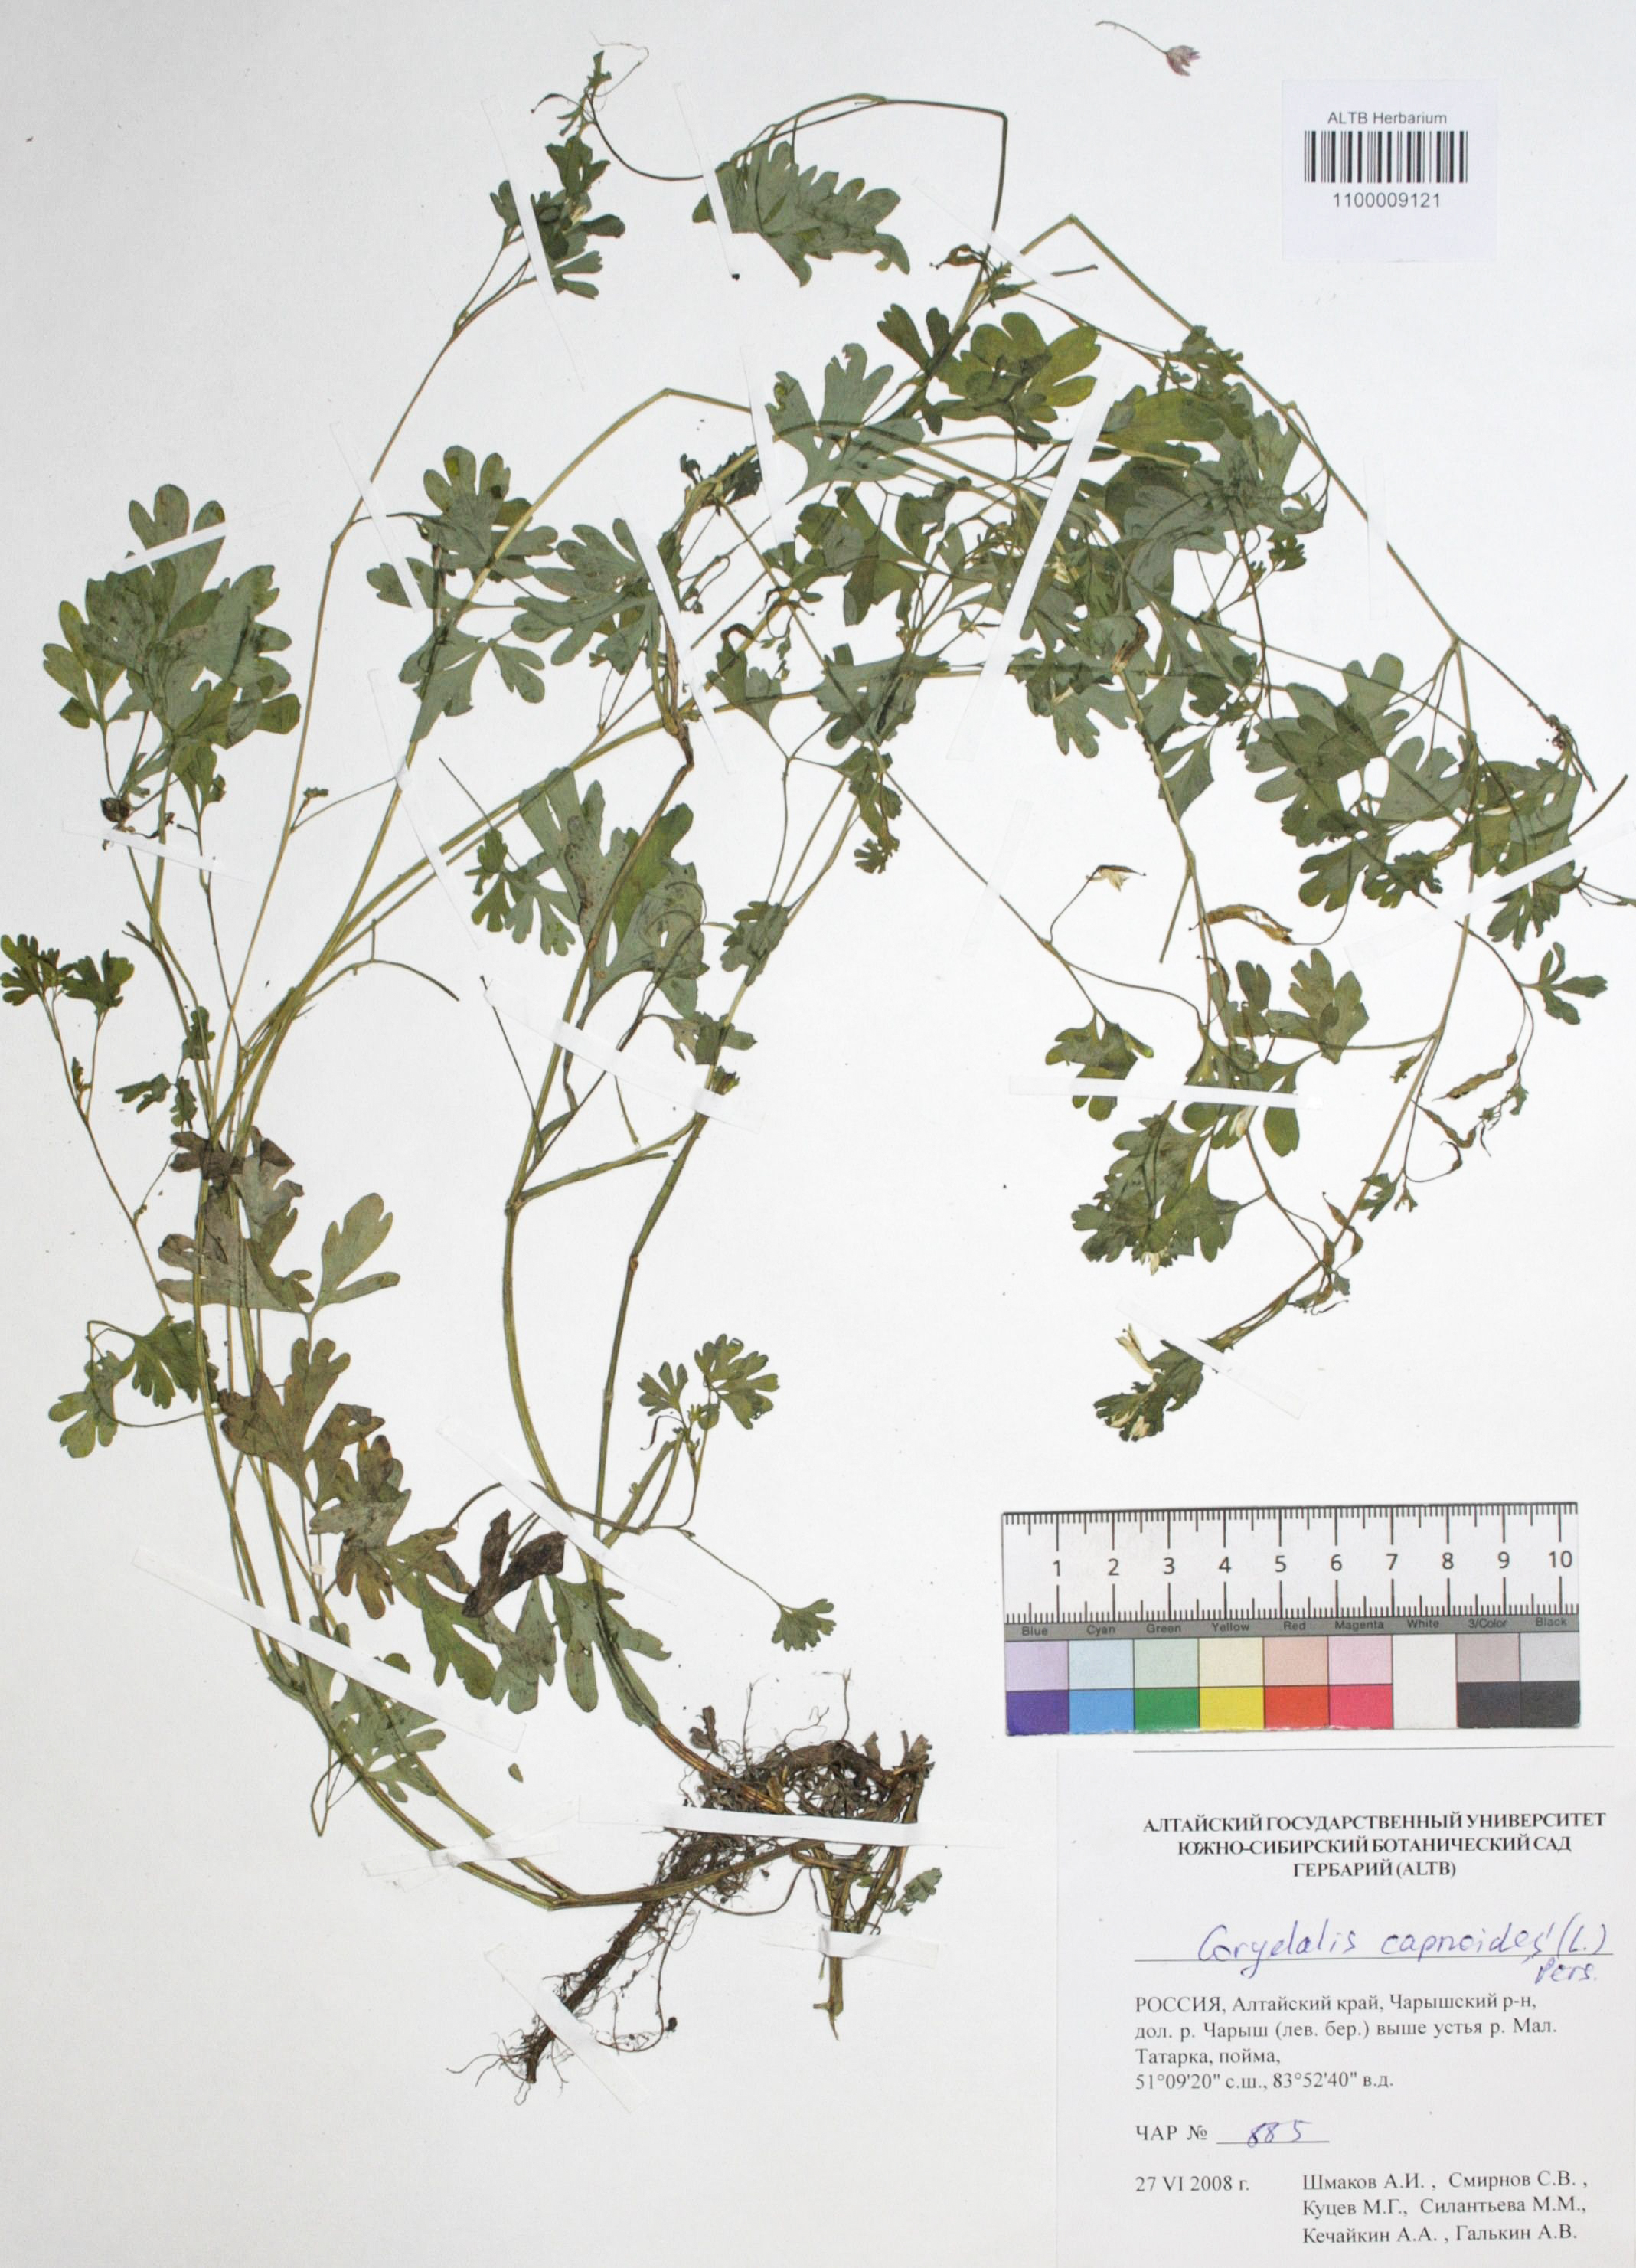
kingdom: Plantae
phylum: Tracheophyta
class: Magnoliopsida
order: Ranunculales
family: Papaveraceae
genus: Corydalis
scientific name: Corydalis capnoides
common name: Beaked corydalis
